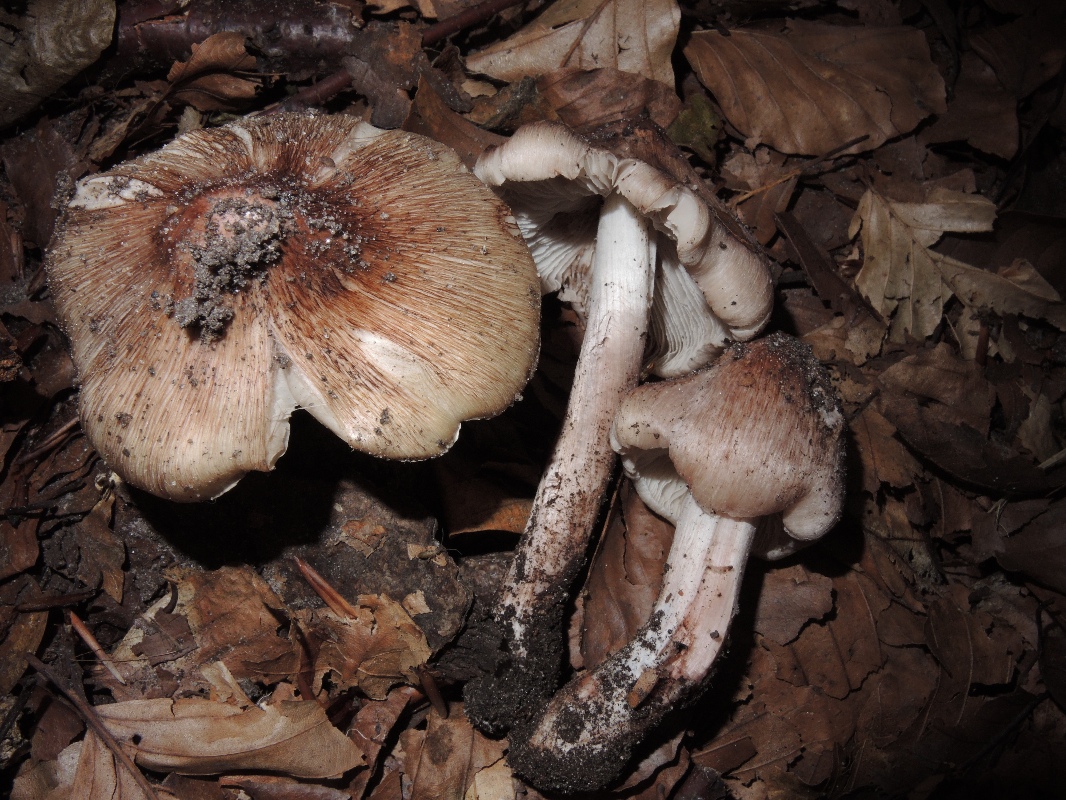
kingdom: Fungi
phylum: Basidiomycota
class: Agaricomycetes
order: Agaricales
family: Inocybaceae
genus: Inosperma
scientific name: Inosperma adaequatum
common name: vinrød trævlhat
